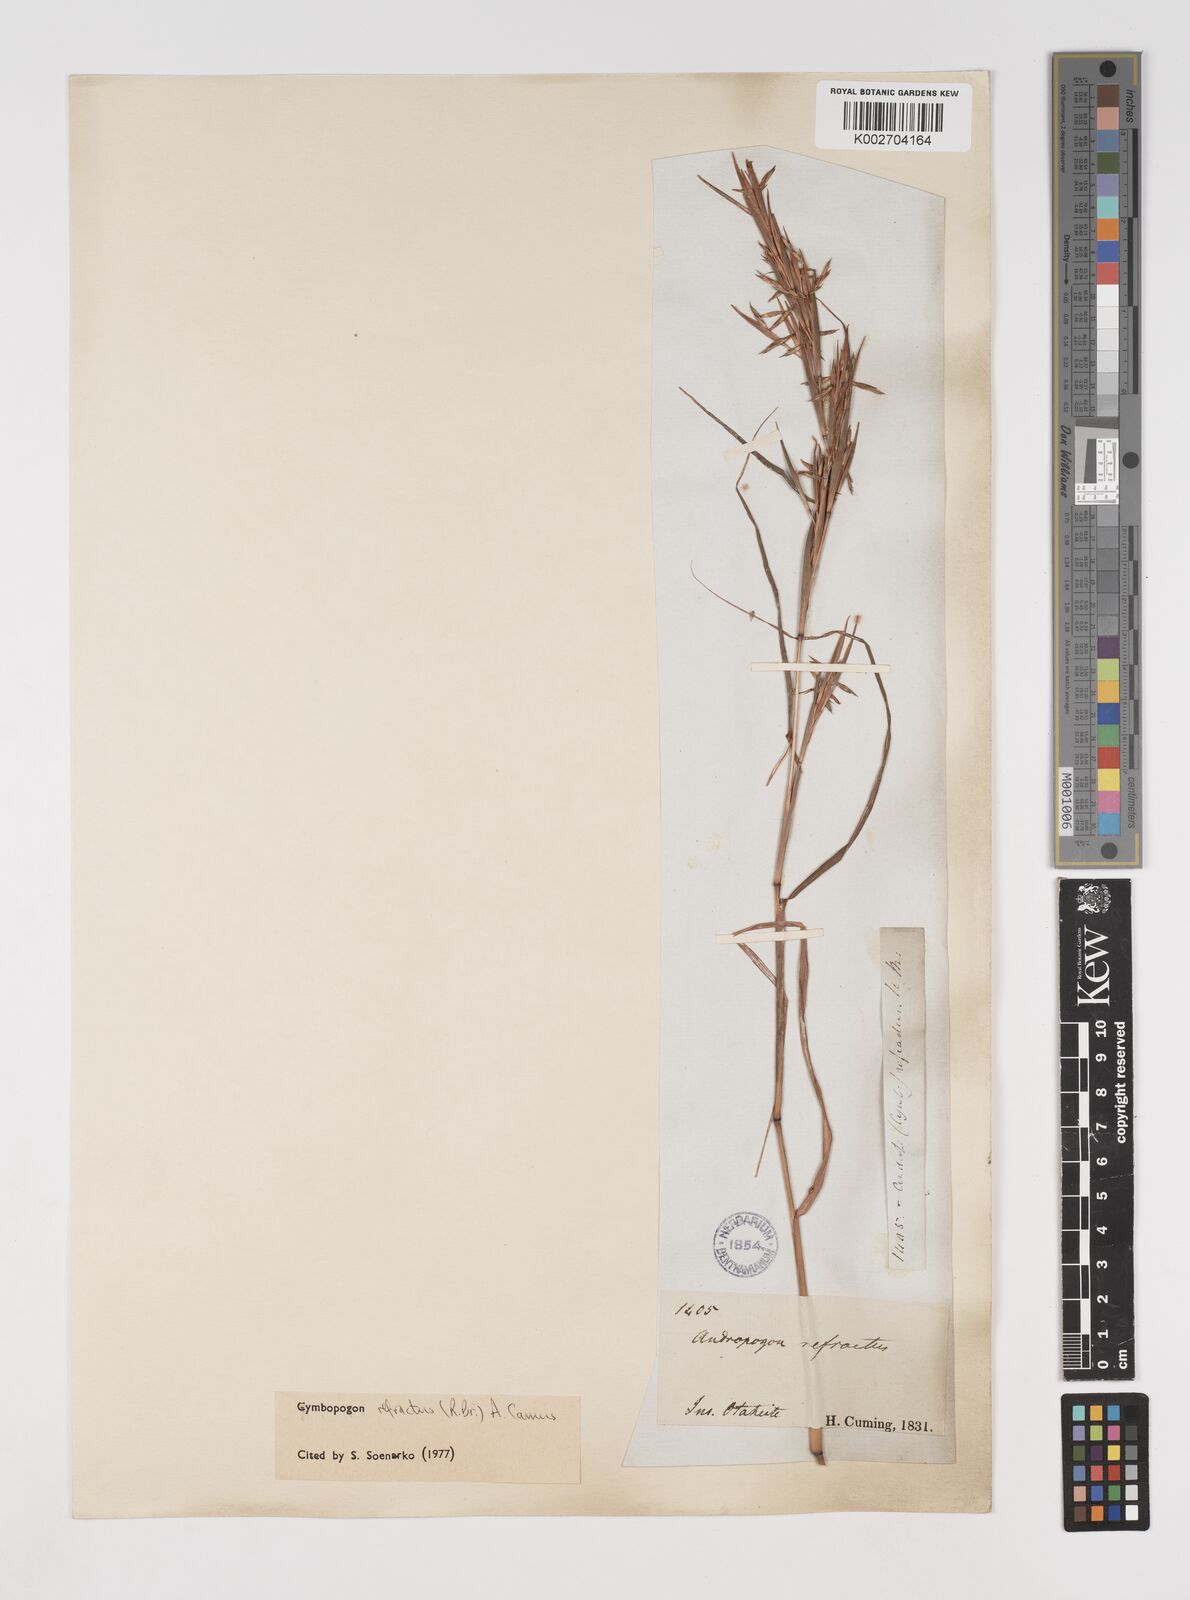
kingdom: Plantae
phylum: Tracheophyta
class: Liliopsida
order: Poales
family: Poaceae
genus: Cymbopogon
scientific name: Cymbopogon refractus
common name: Barbwire grass
